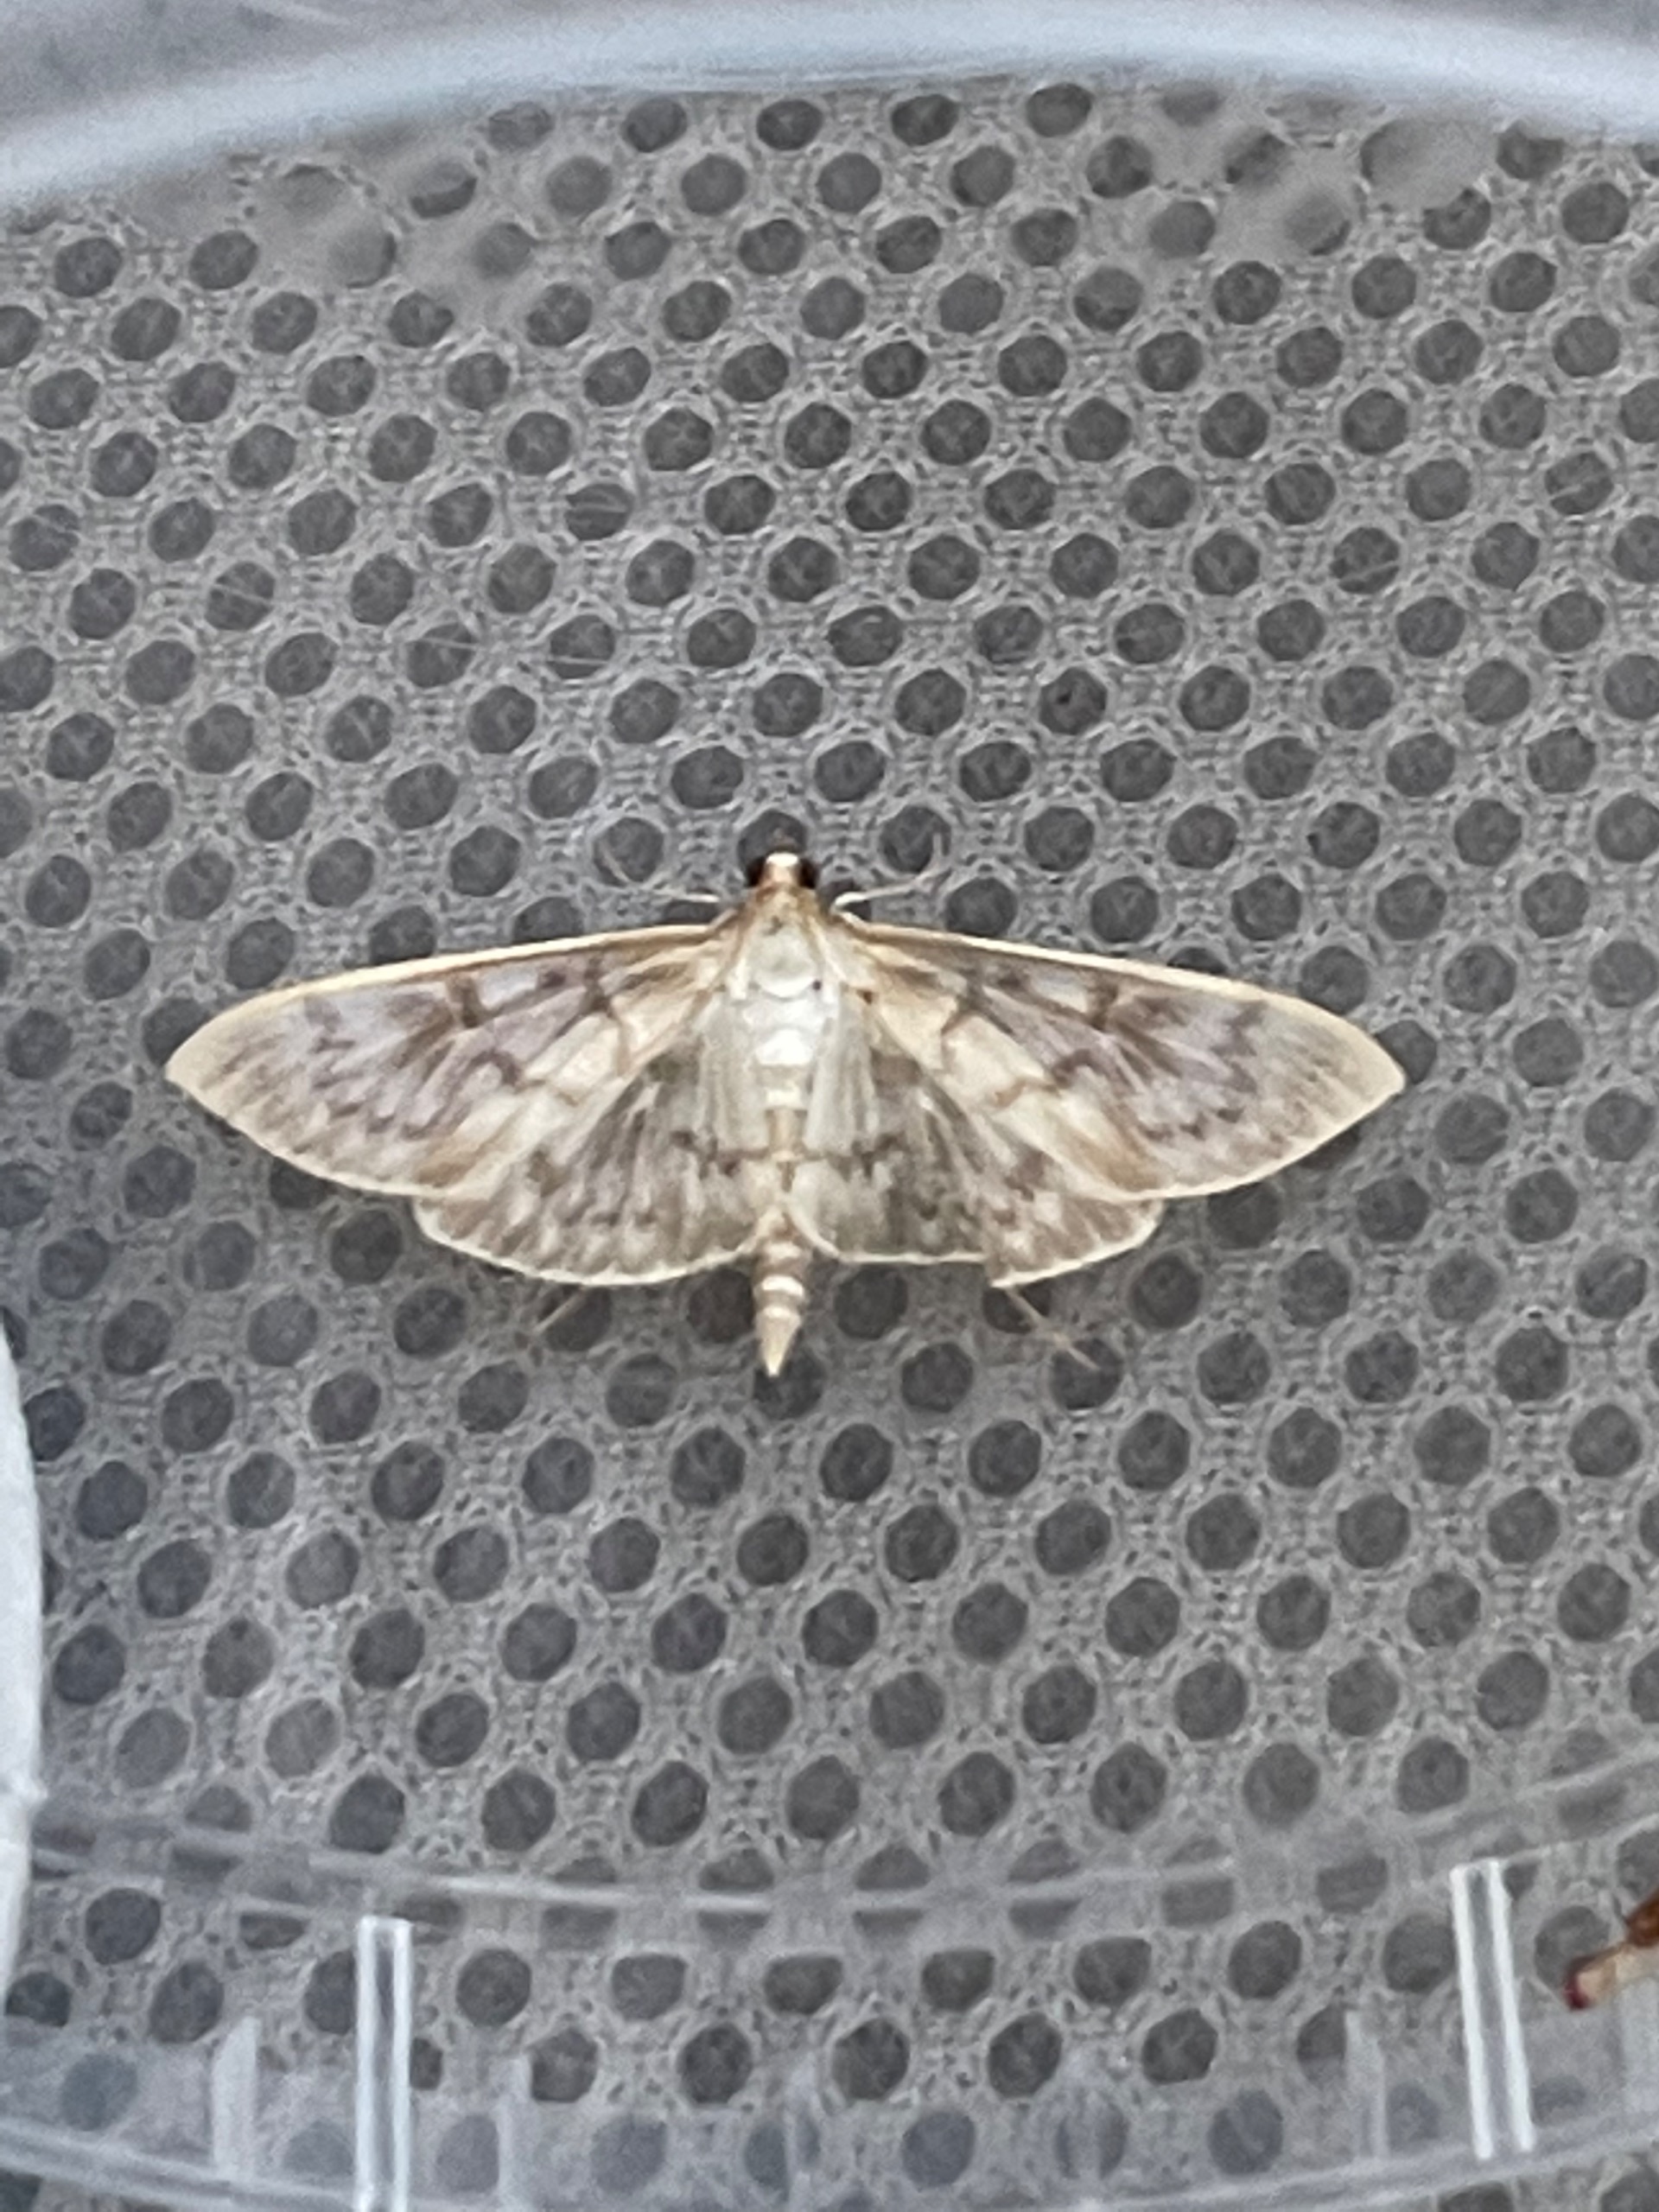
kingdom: Animalia
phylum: Arthropoda
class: Insecta
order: Lepidoptera
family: Crambidae
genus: Patania
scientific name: Patania ruralis
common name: Perlemorshalvmøl
